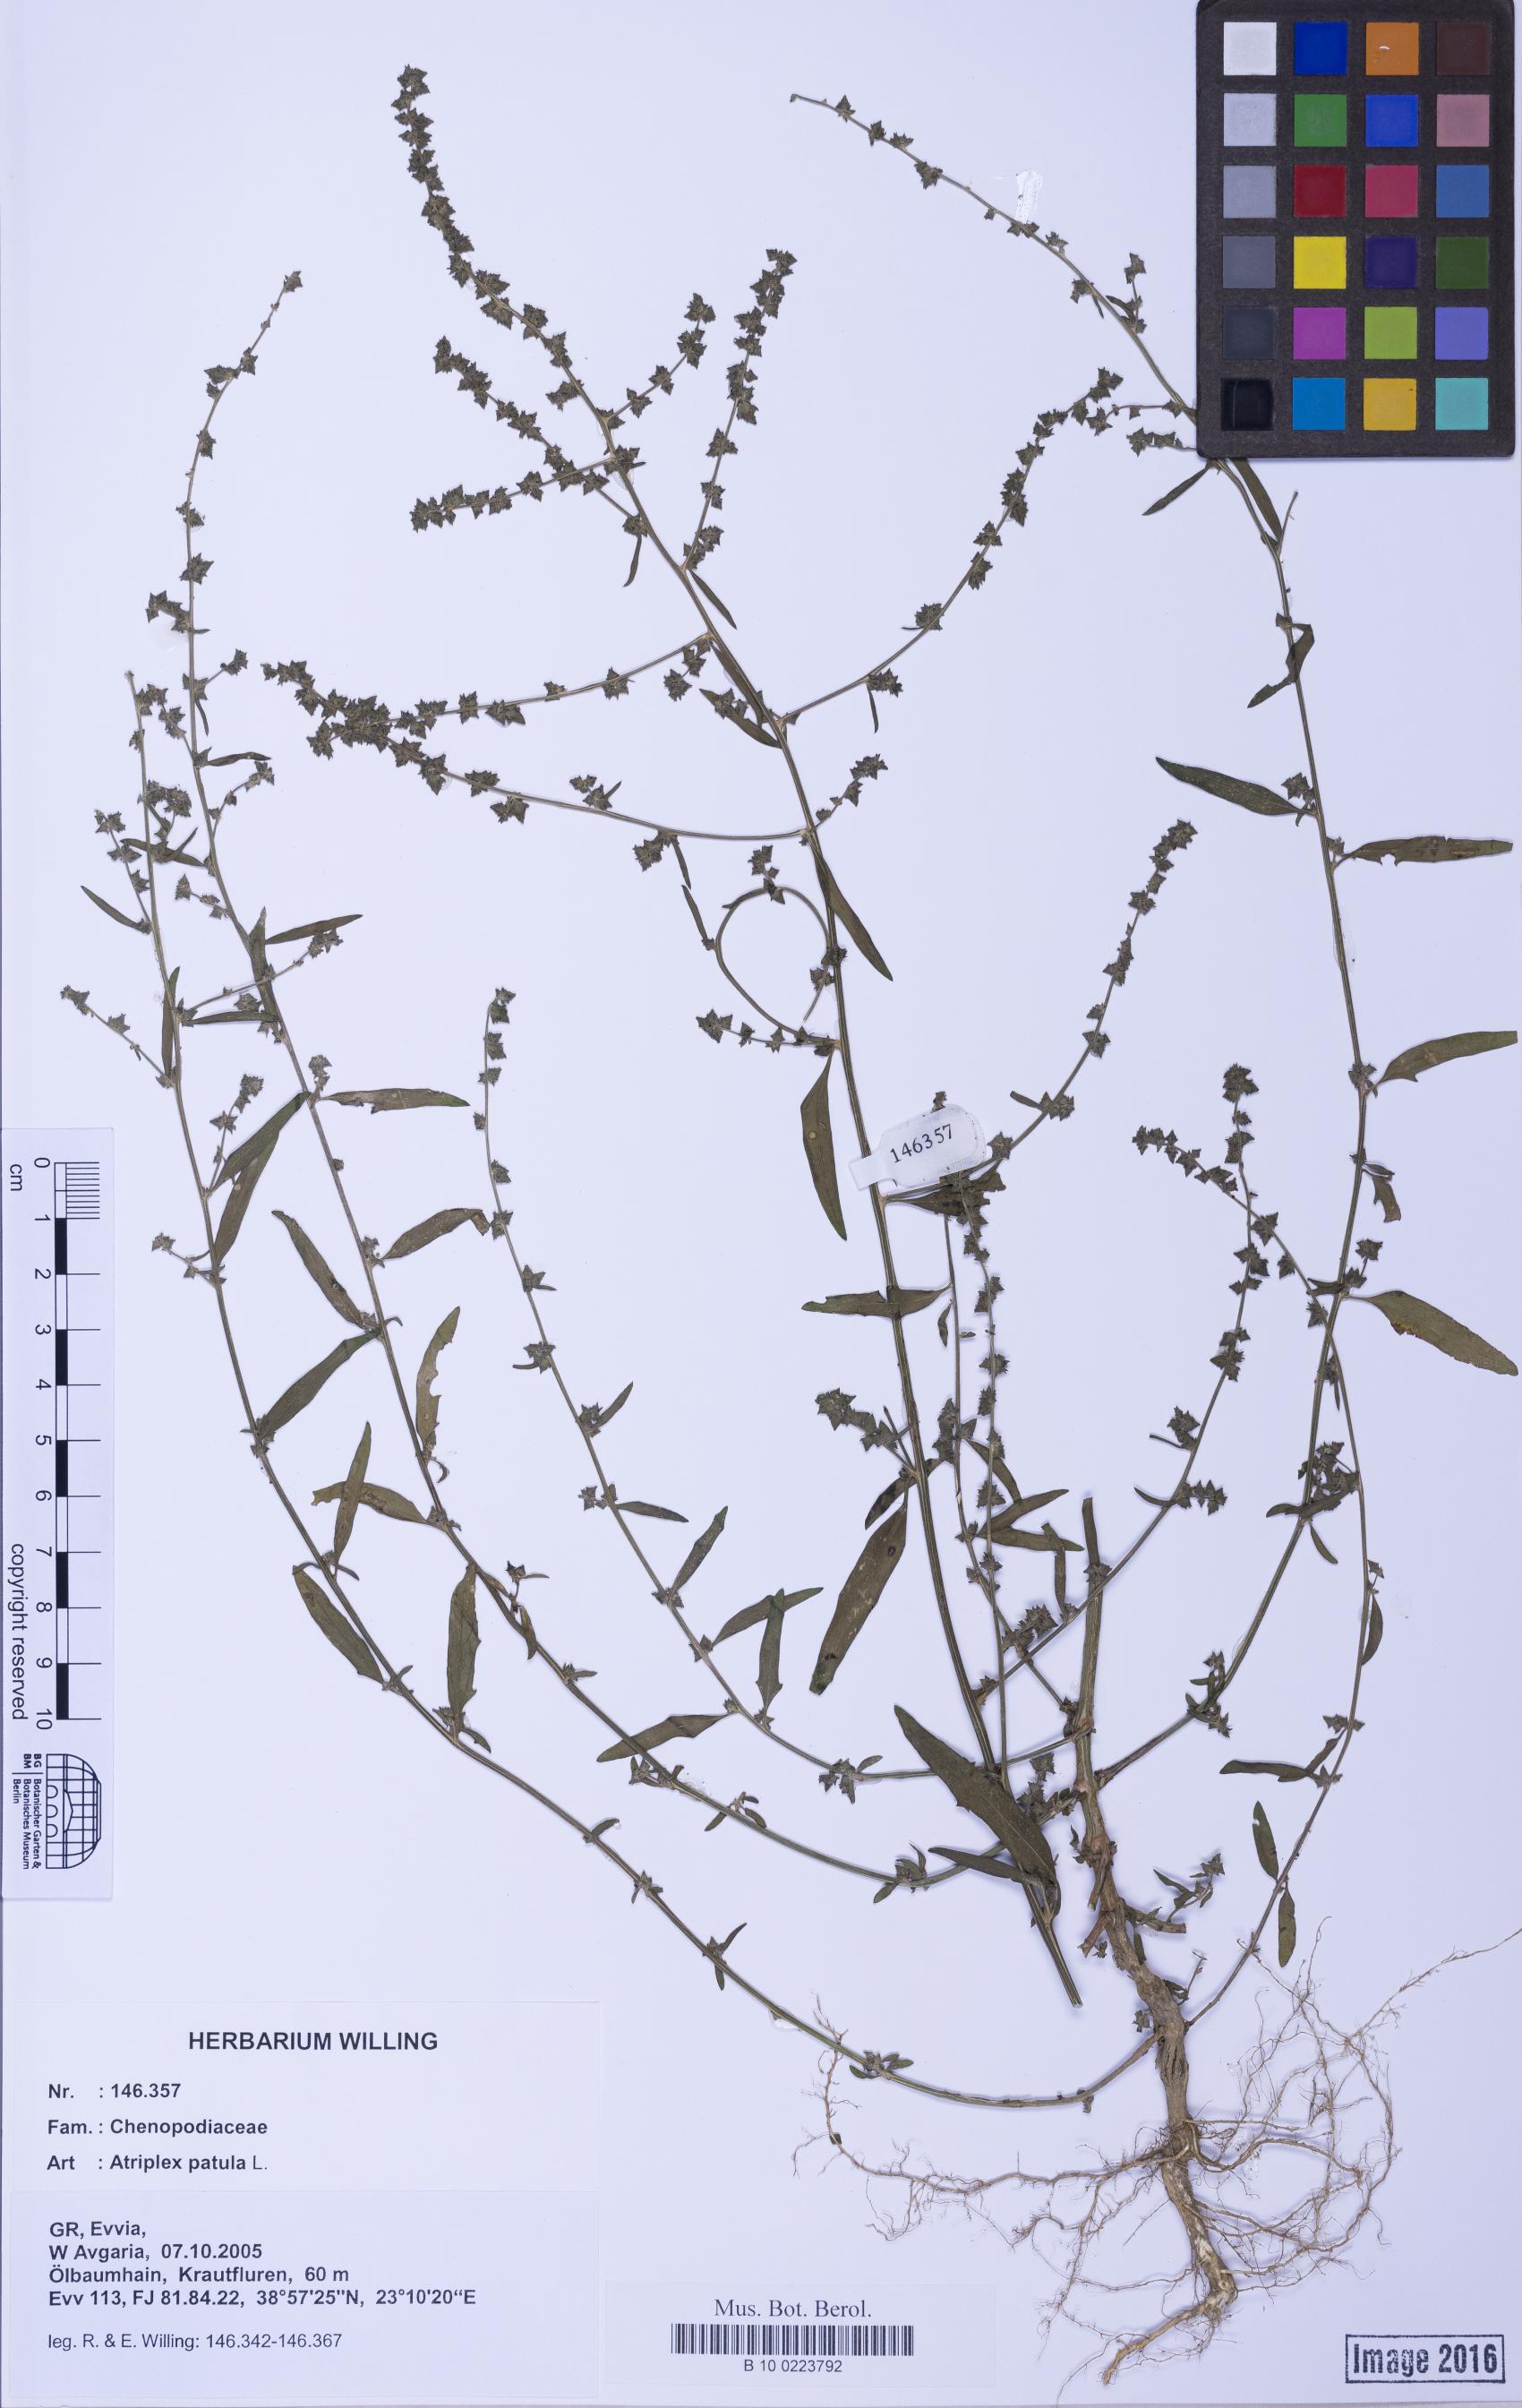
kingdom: Plantae
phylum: Tracheophyta
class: Magnoliopsida
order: Caryophyllales
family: Amaranthaceae
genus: Atriplex
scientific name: Atriplex patula
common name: Common orache
